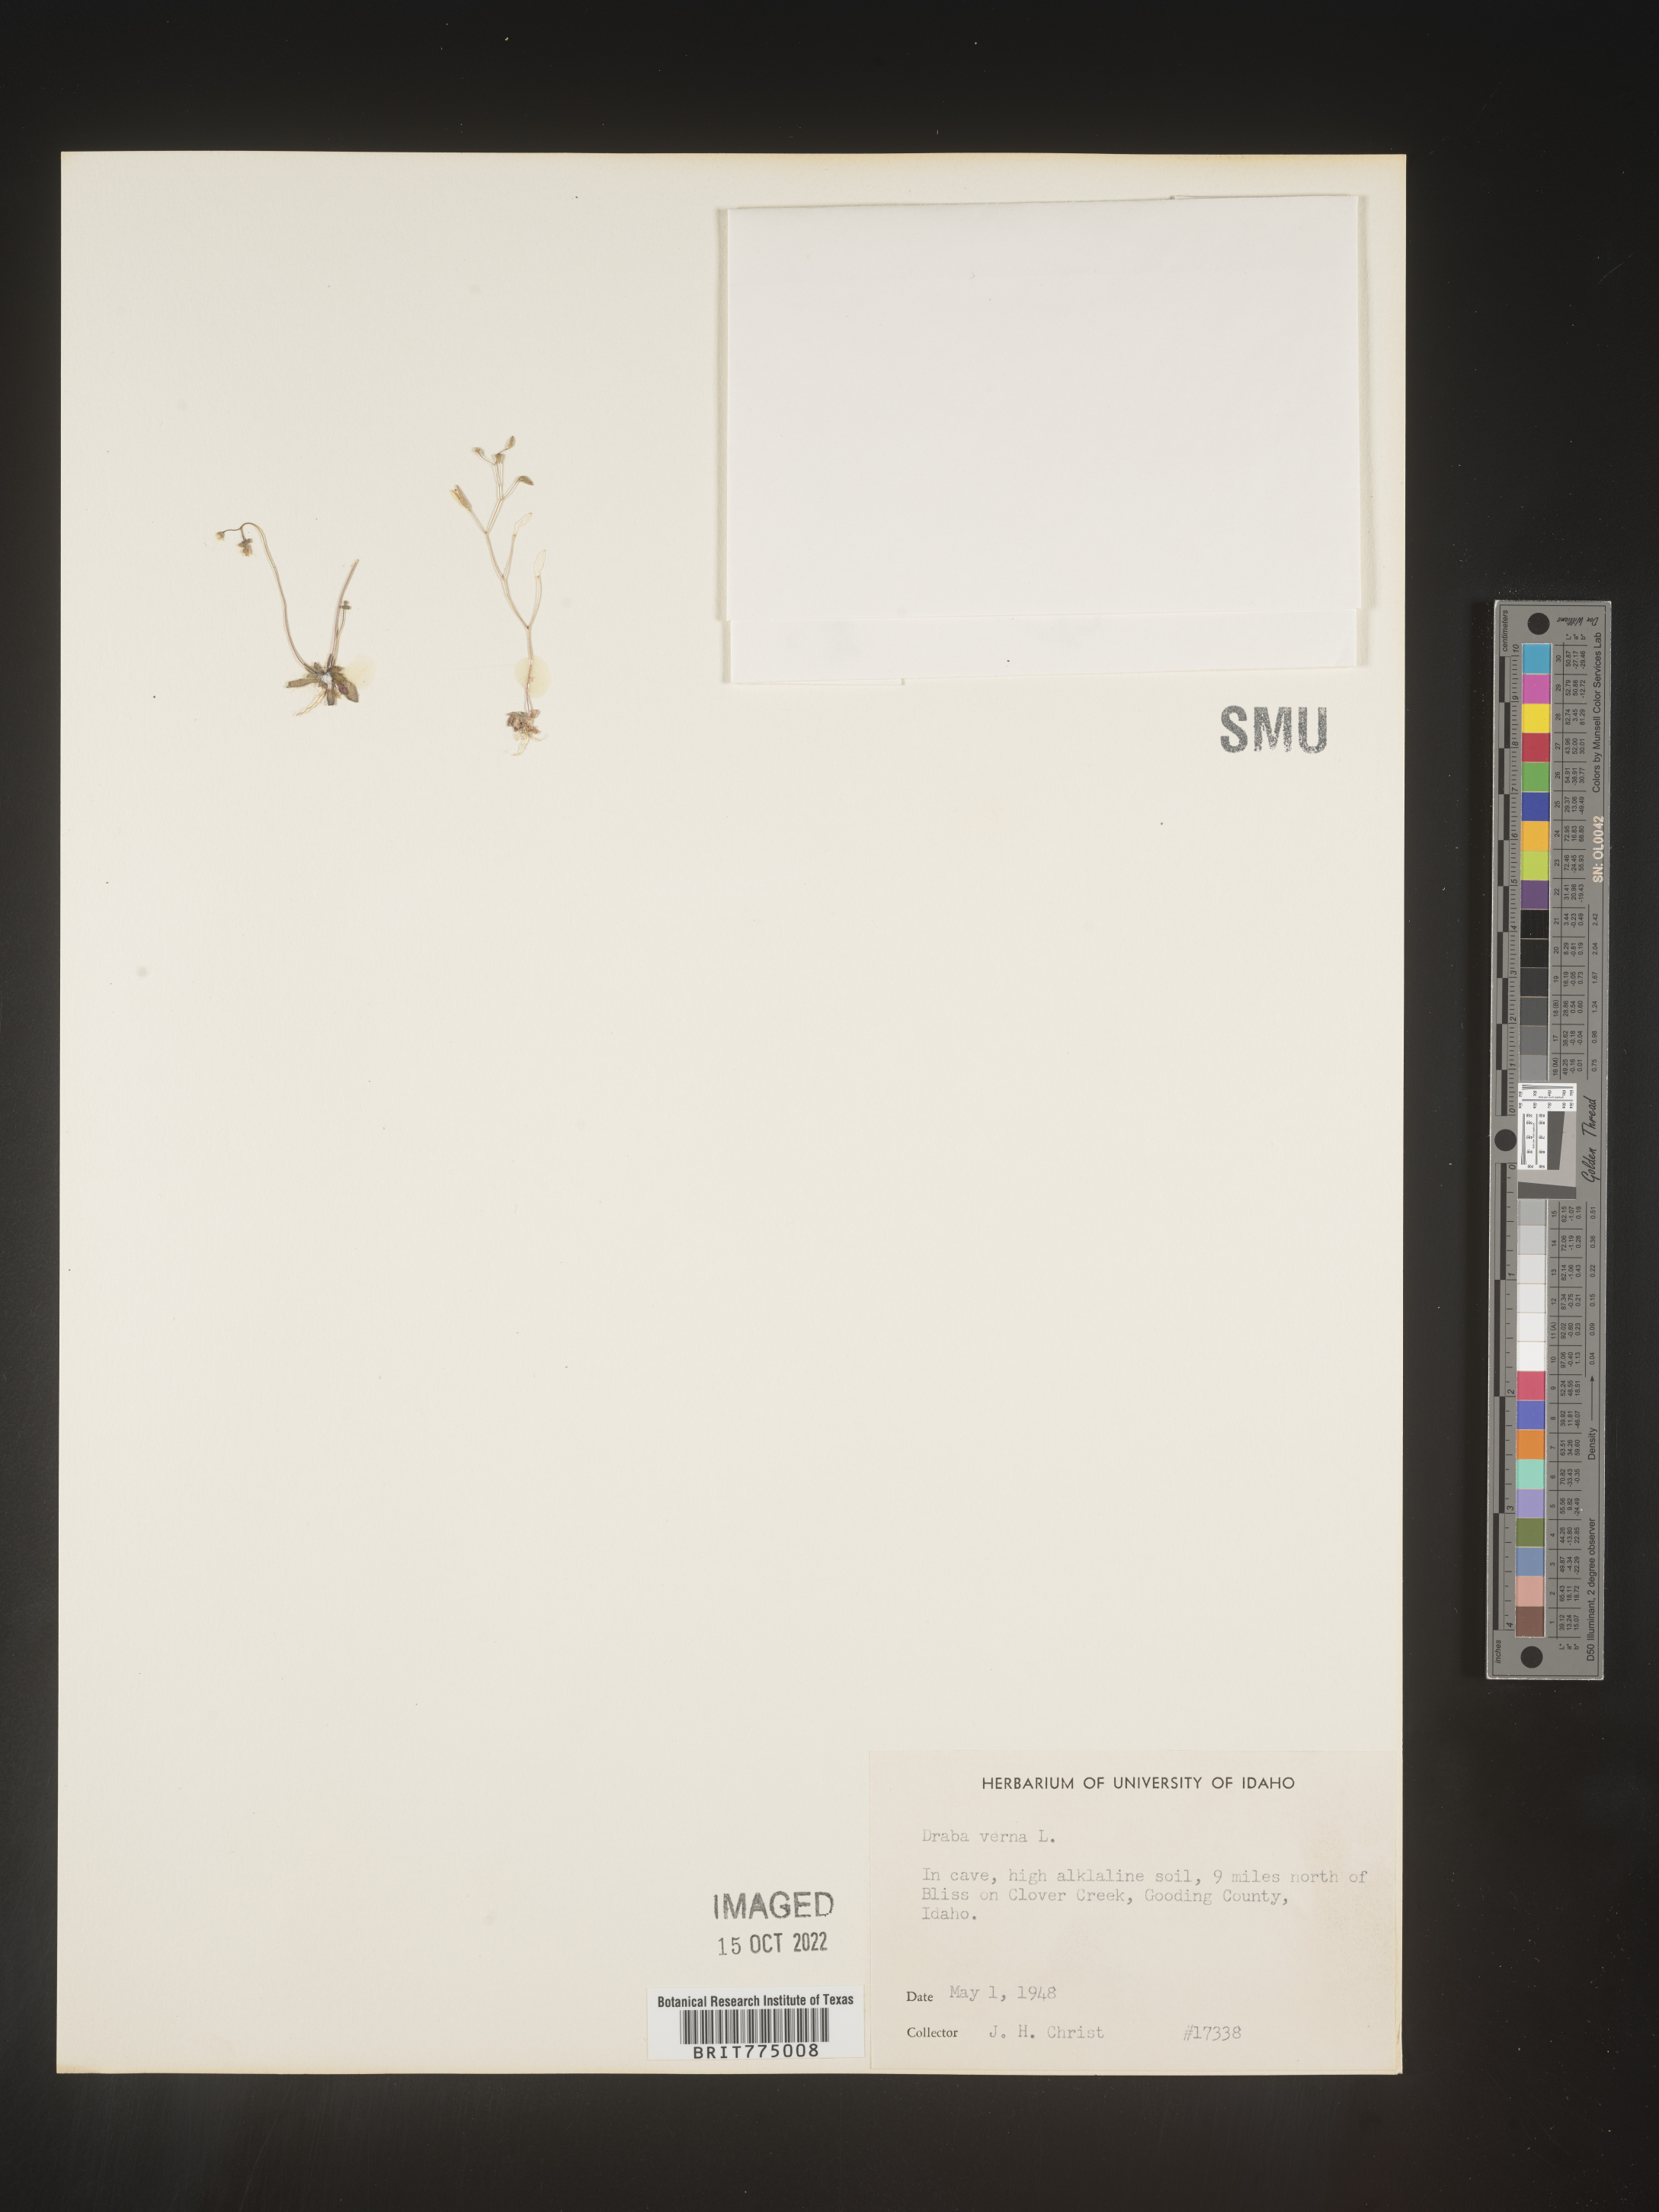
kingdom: Plantae
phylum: Tracheophyta
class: Magnoliopsida
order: Brassicales
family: Brassicaceae
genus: Draba
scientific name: Draba verna
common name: Spring draba
